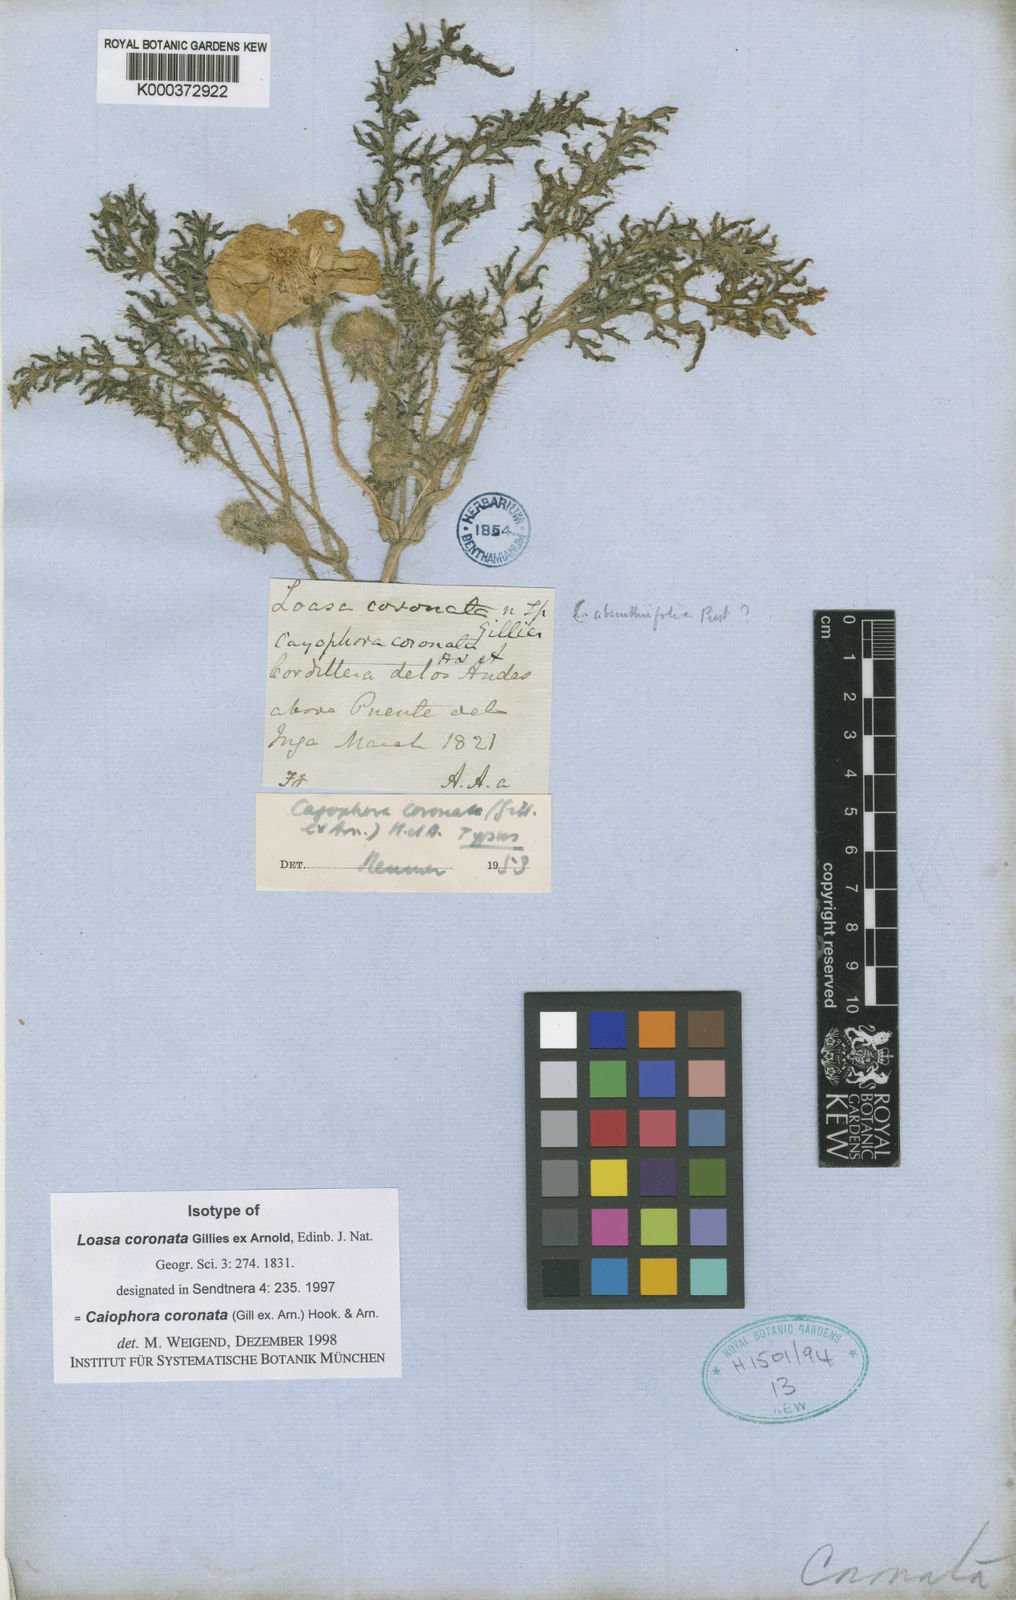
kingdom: Plantae
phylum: Tracheophyta
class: Magnoliopsida
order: Cornales
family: Loasaceae
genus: Caiophora
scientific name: Caiophora coronata
